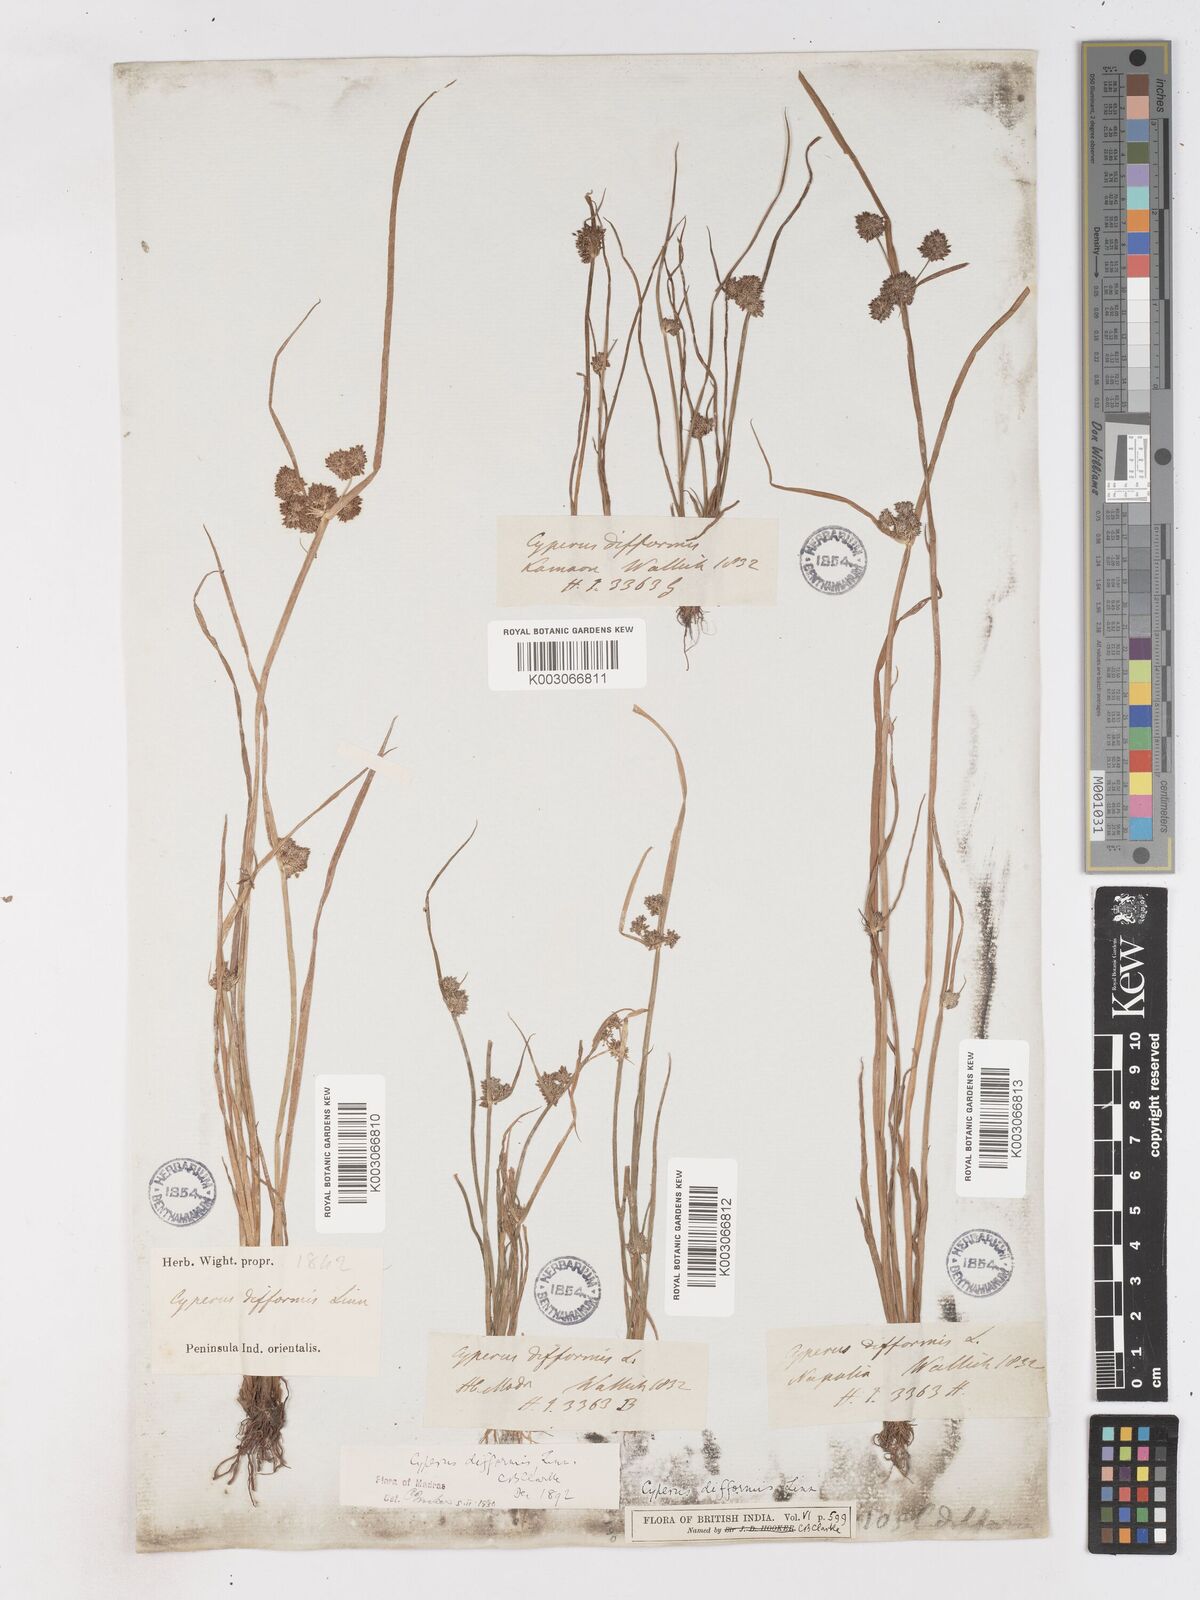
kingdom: Plantae
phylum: Tracheophyta
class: Liliopsida
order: Poales
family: Cyperaceae
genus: Cyperus
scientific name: Cyperus difformis
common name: Variable flatsedge
